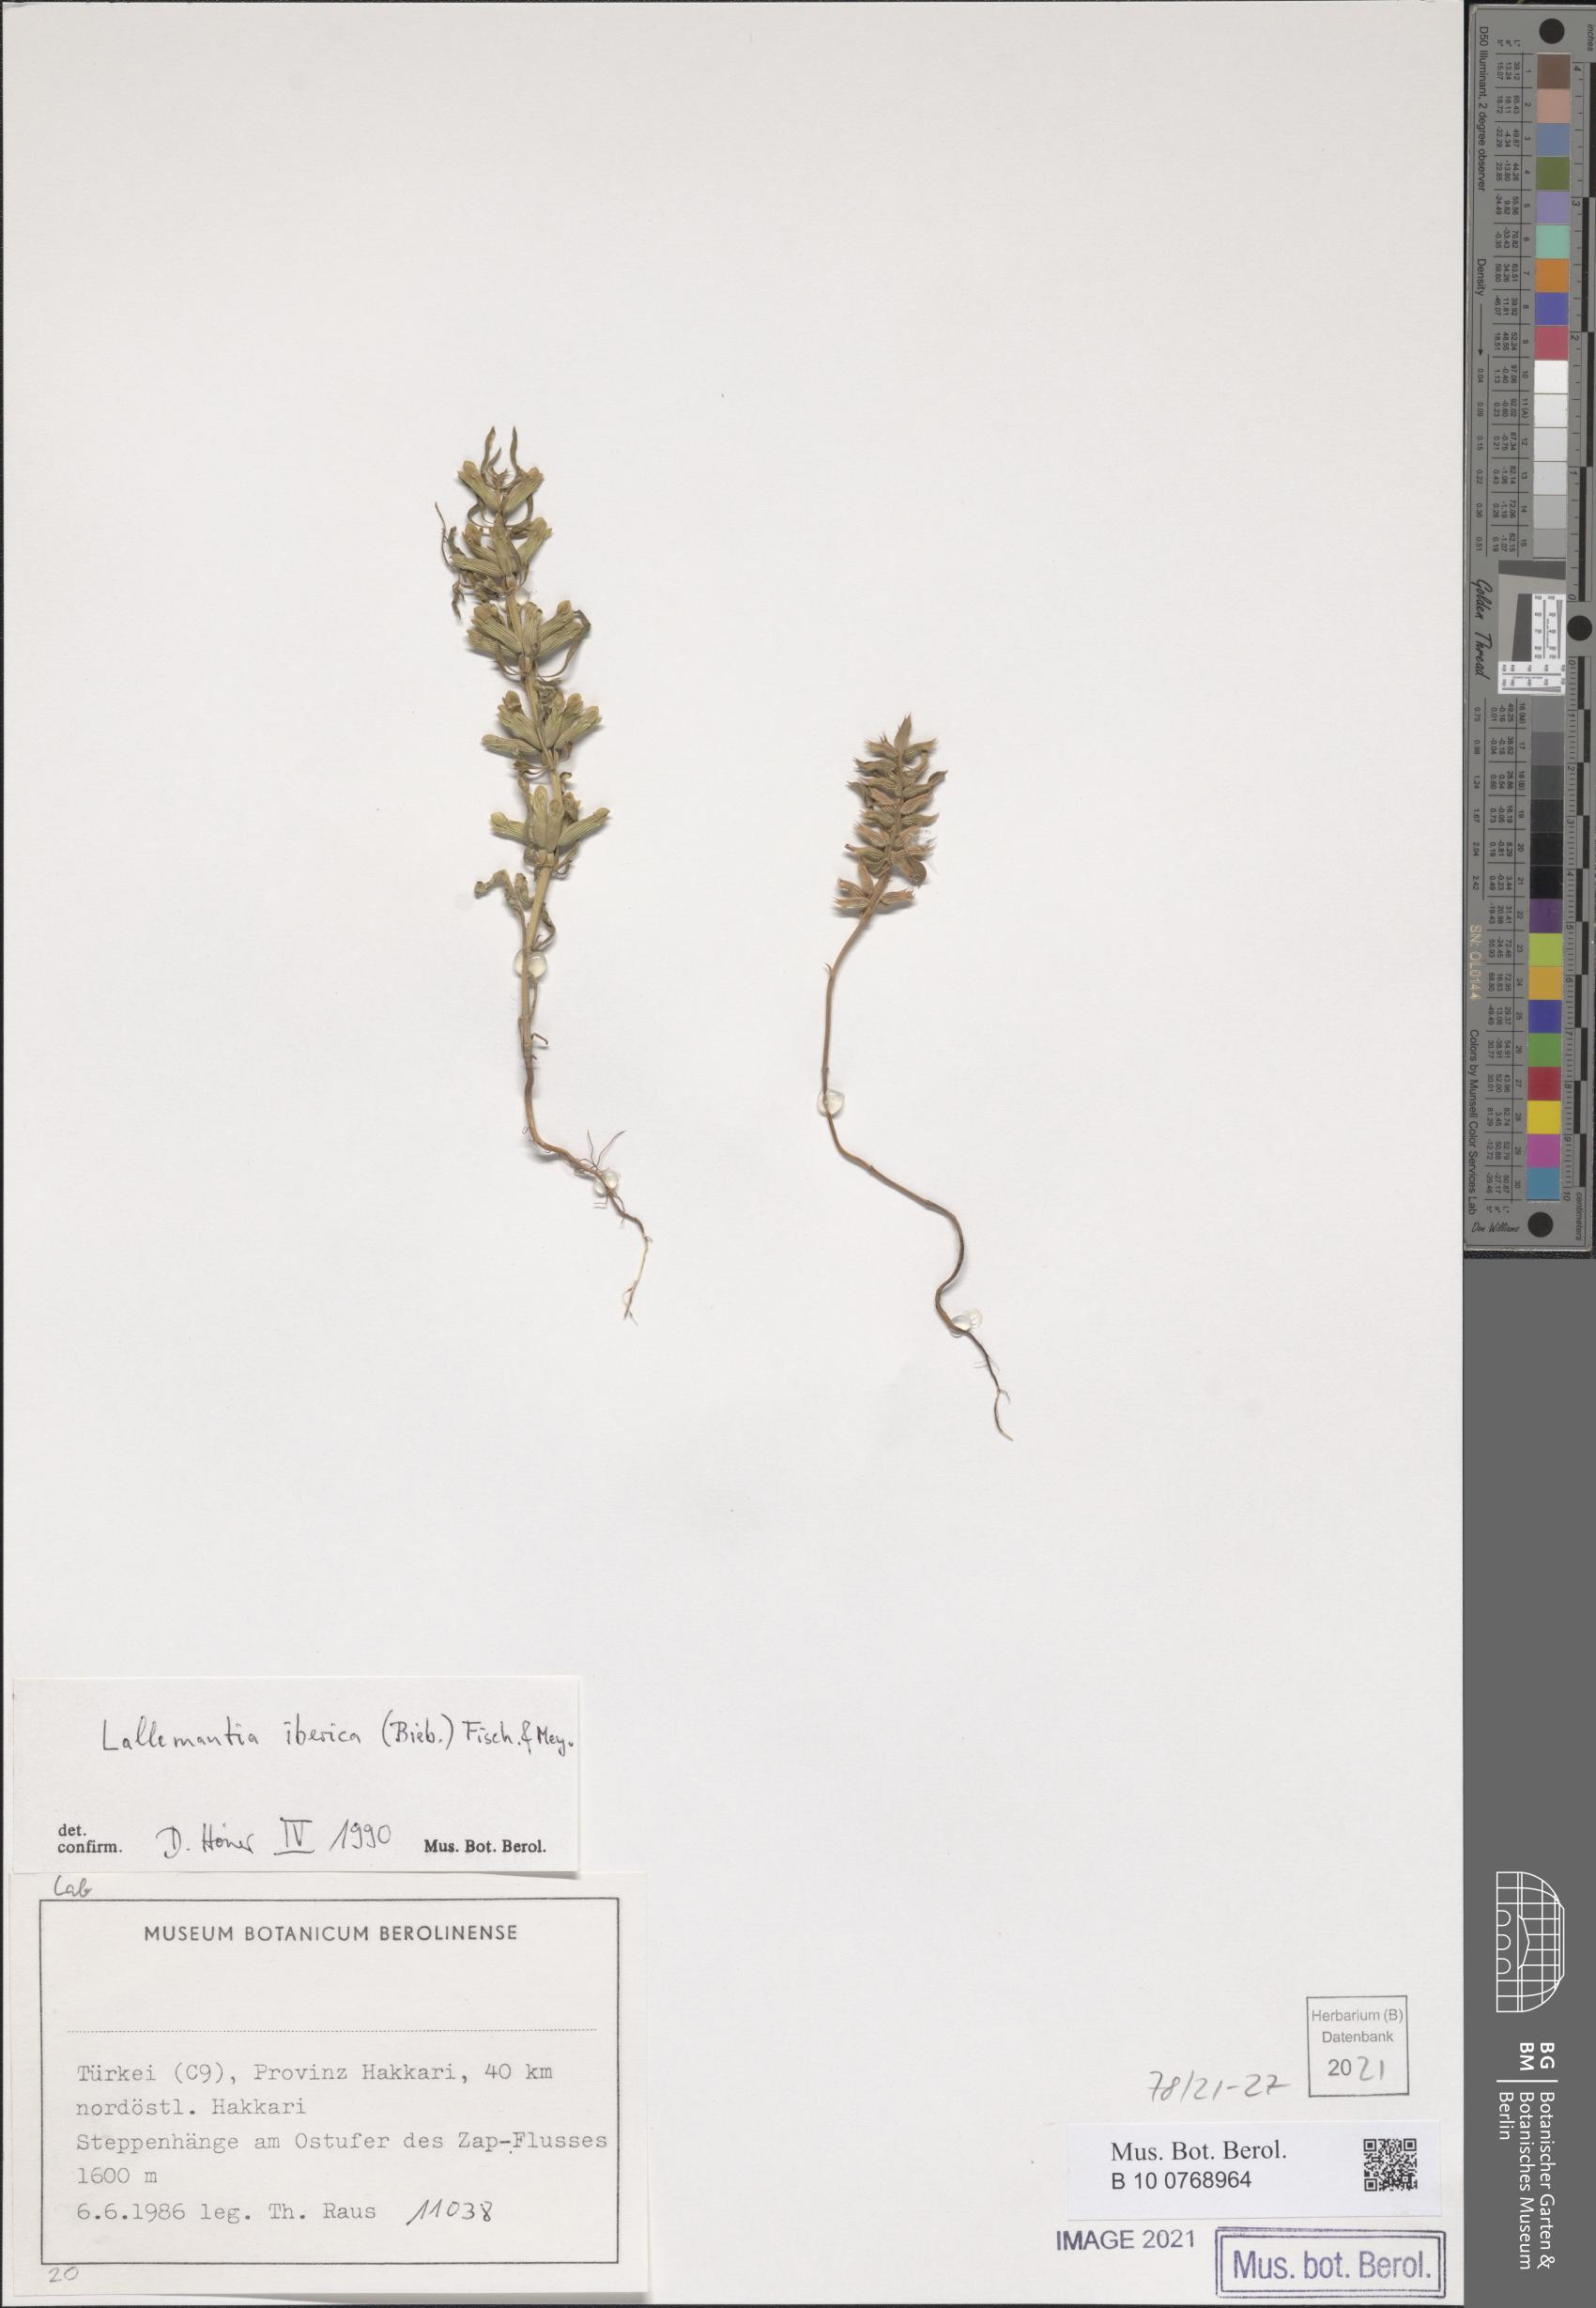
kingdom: Plantae
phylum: Tracheophyta
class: Magnoliopsida
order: Lamiales
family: Lamiaceae
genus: Lallemantia
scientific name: Lallemantia iberica
